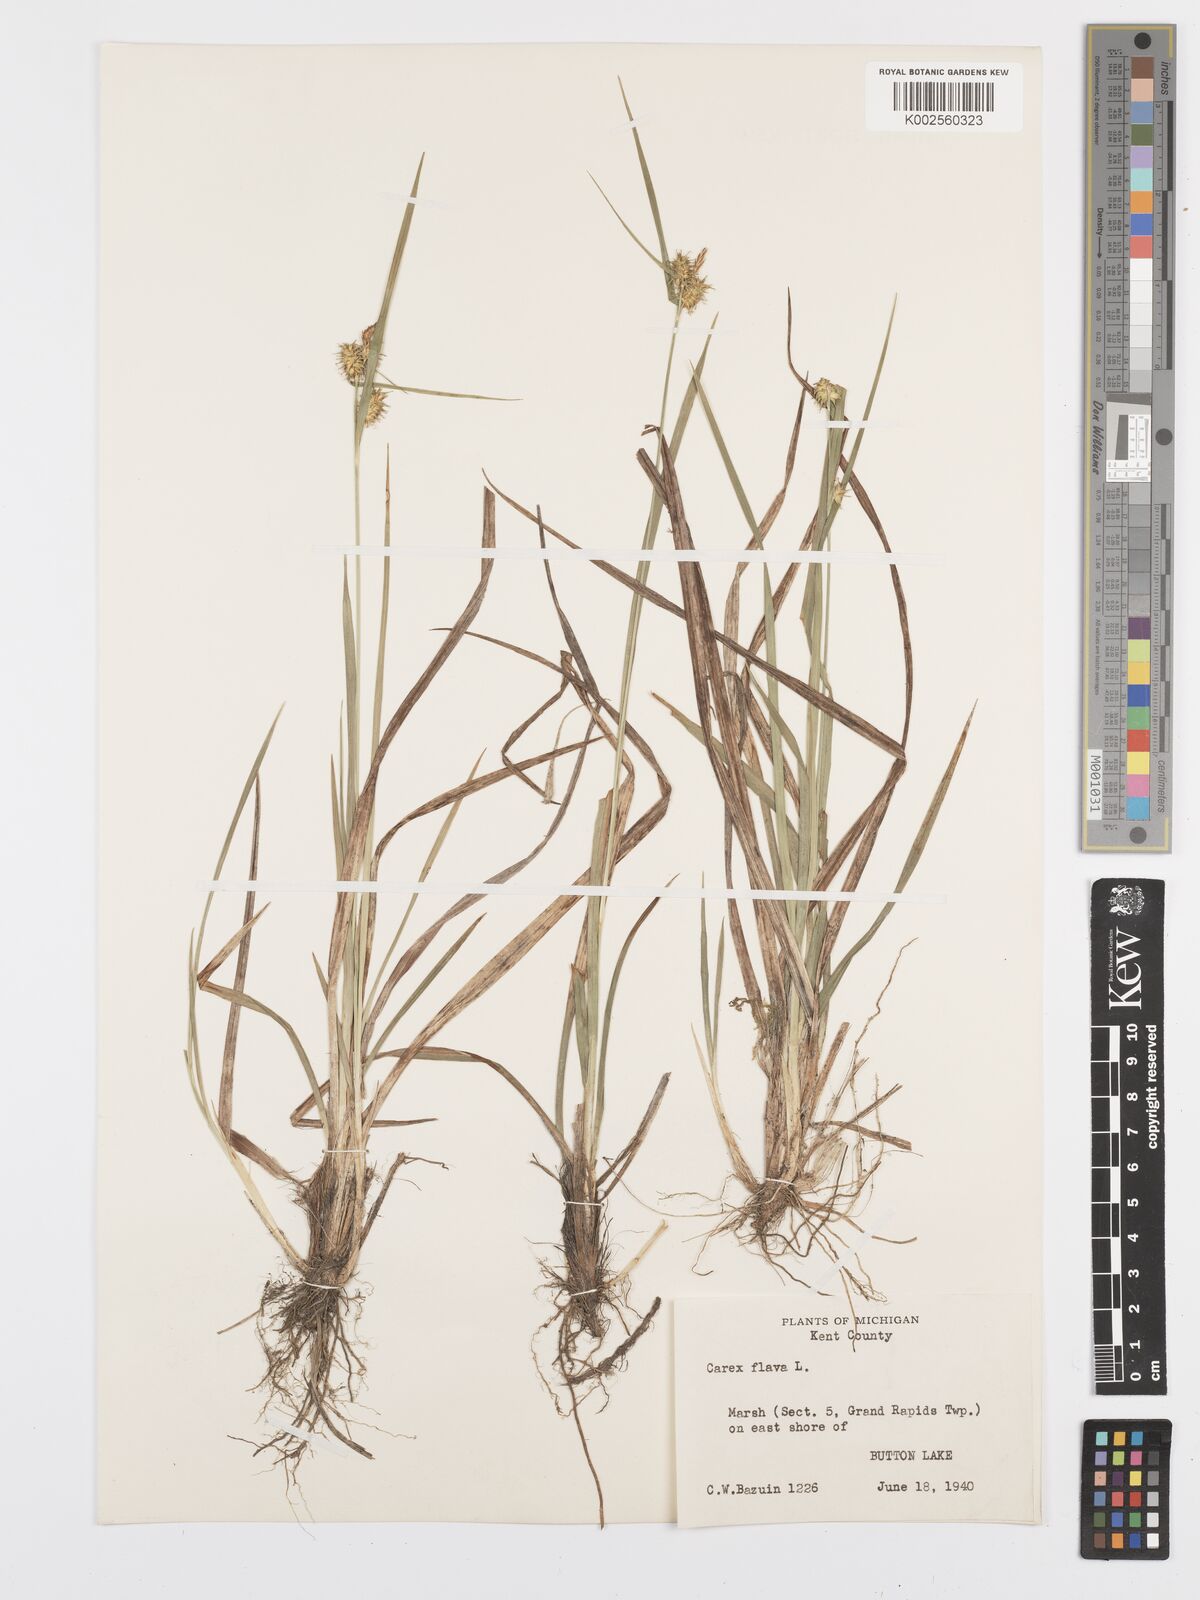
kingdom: Plantae
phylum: Tracheophyta
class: Liliopsida
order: Poales
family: Cyperaceae
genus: Carex
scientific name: Carex flava
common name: Large yellow-sedge
